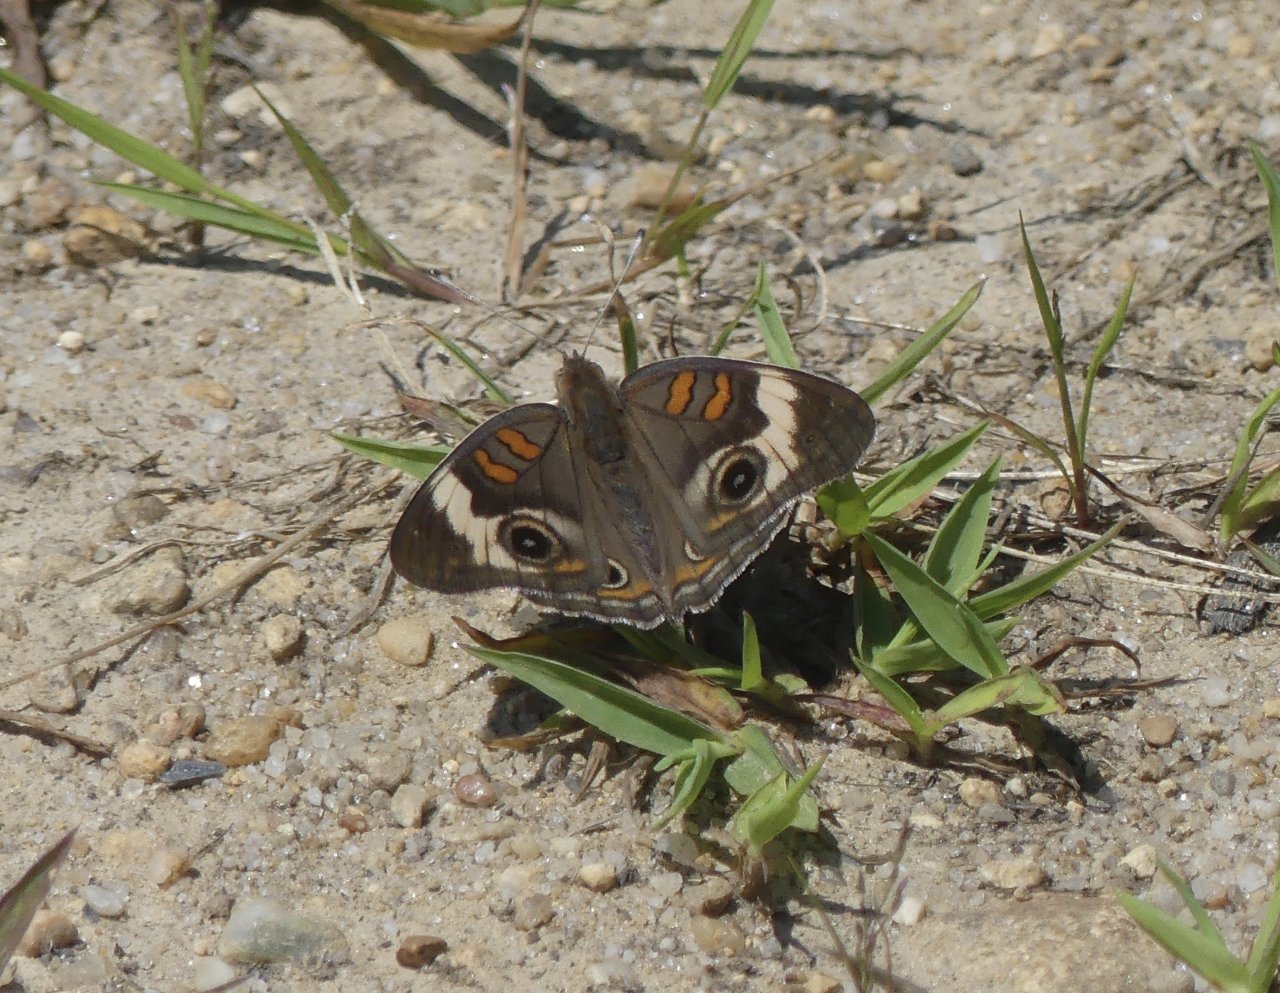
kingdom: Animalia
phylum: Arthropoda
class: Insecta
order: Lepidoptera
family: Nymphalidae
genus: Junonia
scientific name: Junonia coenia
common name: Common Buckeye
